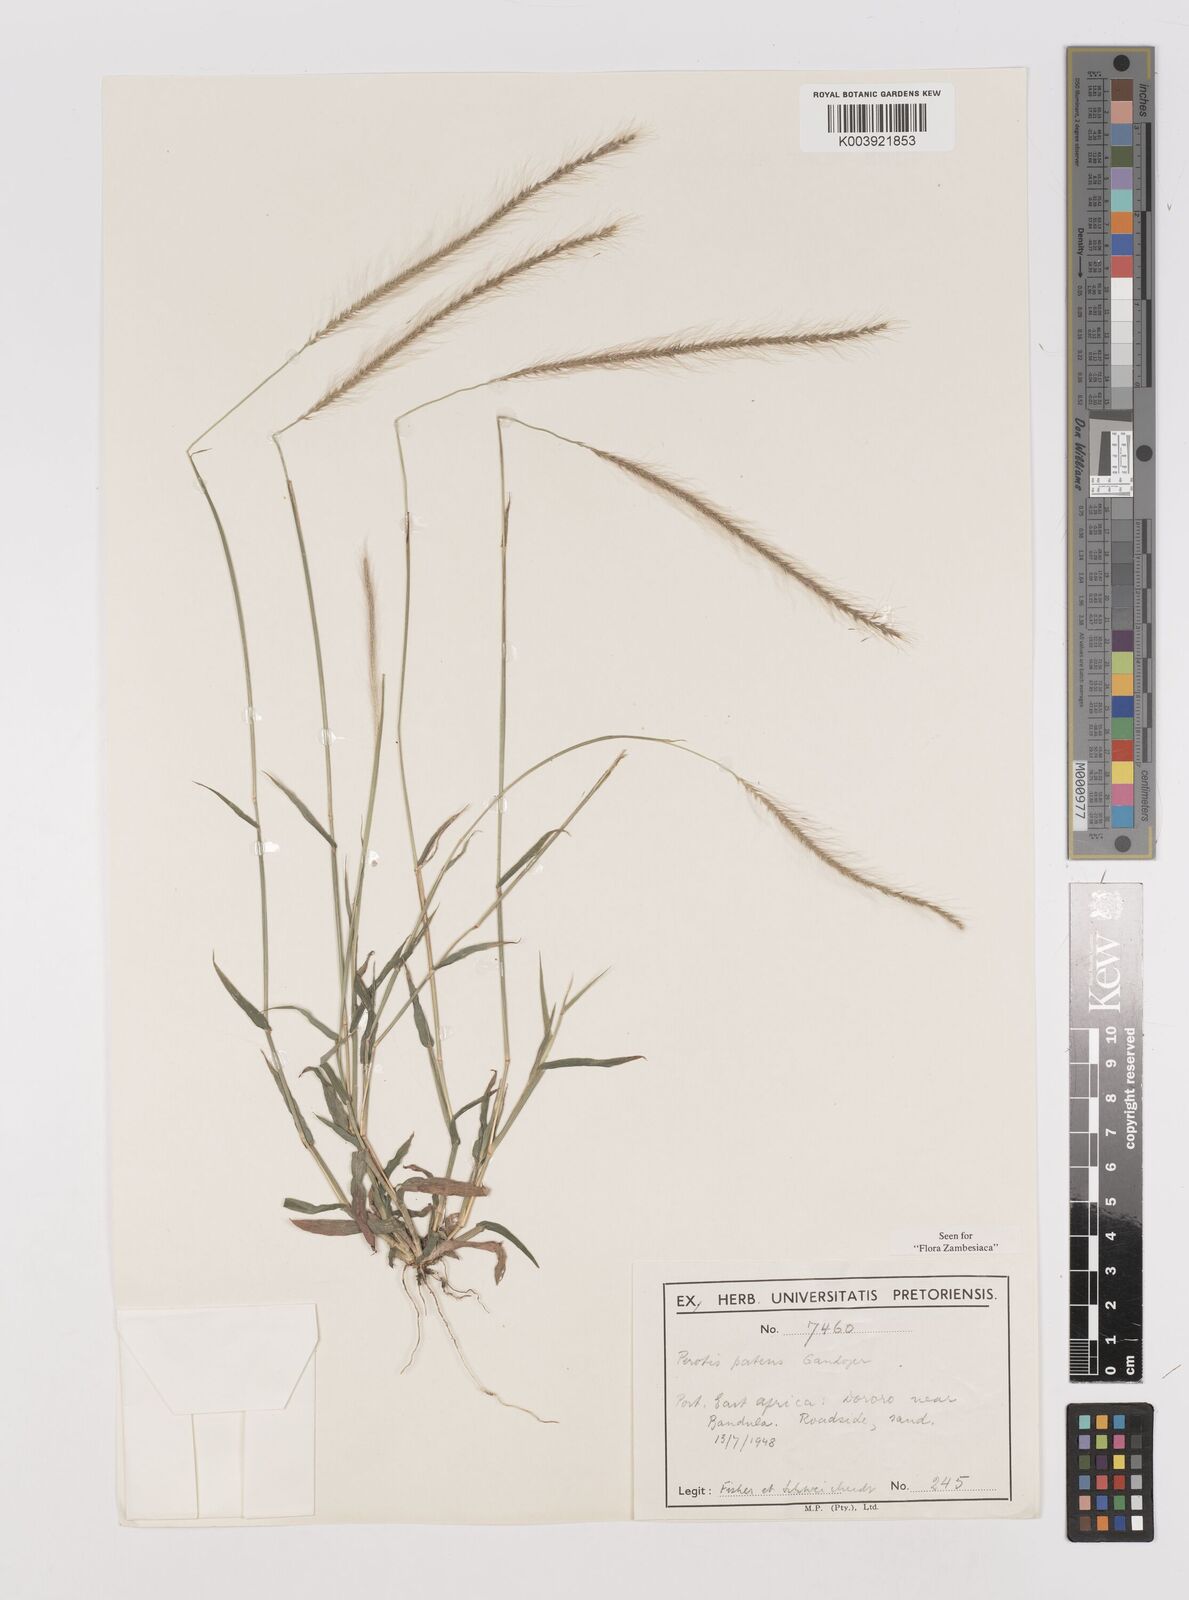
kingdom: Plantae
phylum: Tracheophyta
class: Liliopsida
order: Poales
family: Poaceae
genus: Perotis
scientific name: Perotis patens
